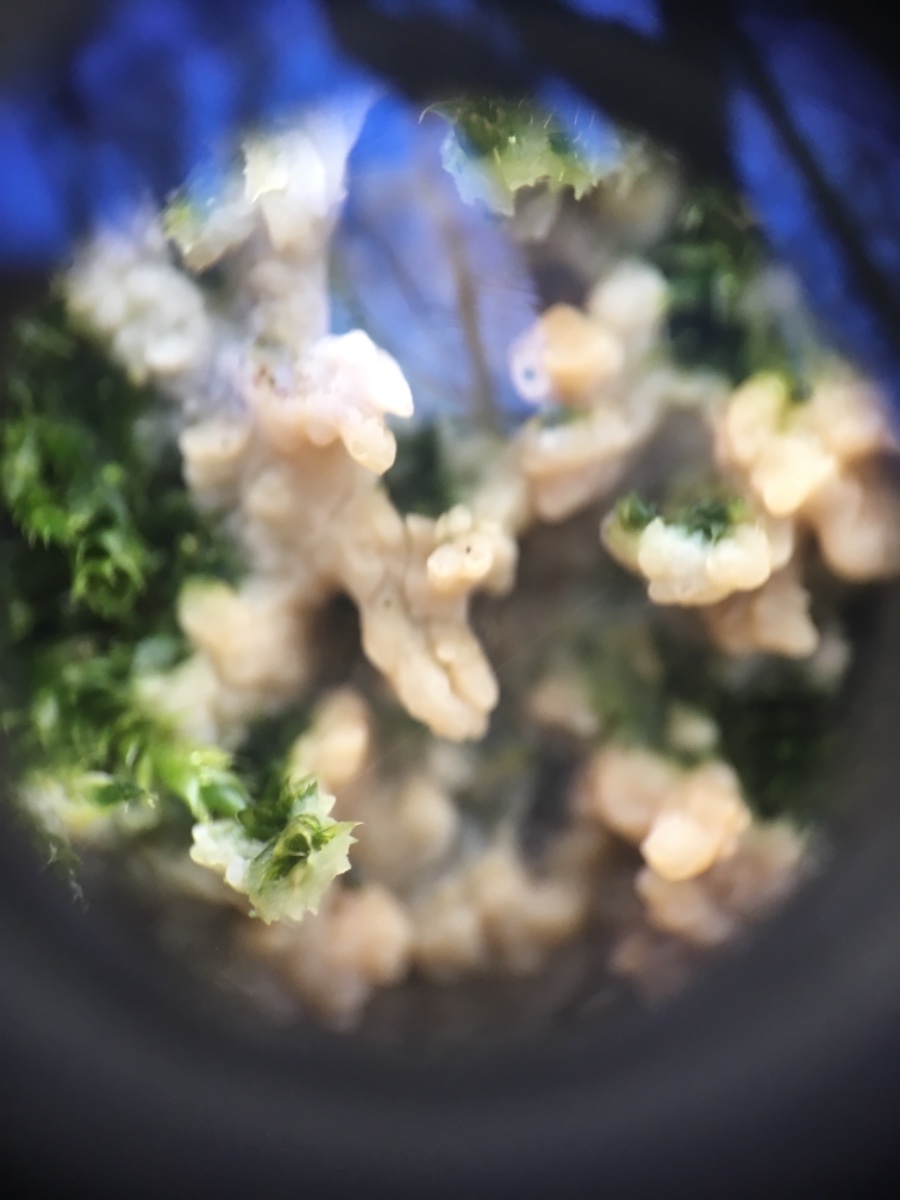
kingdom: Fungi
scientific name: Fungi
